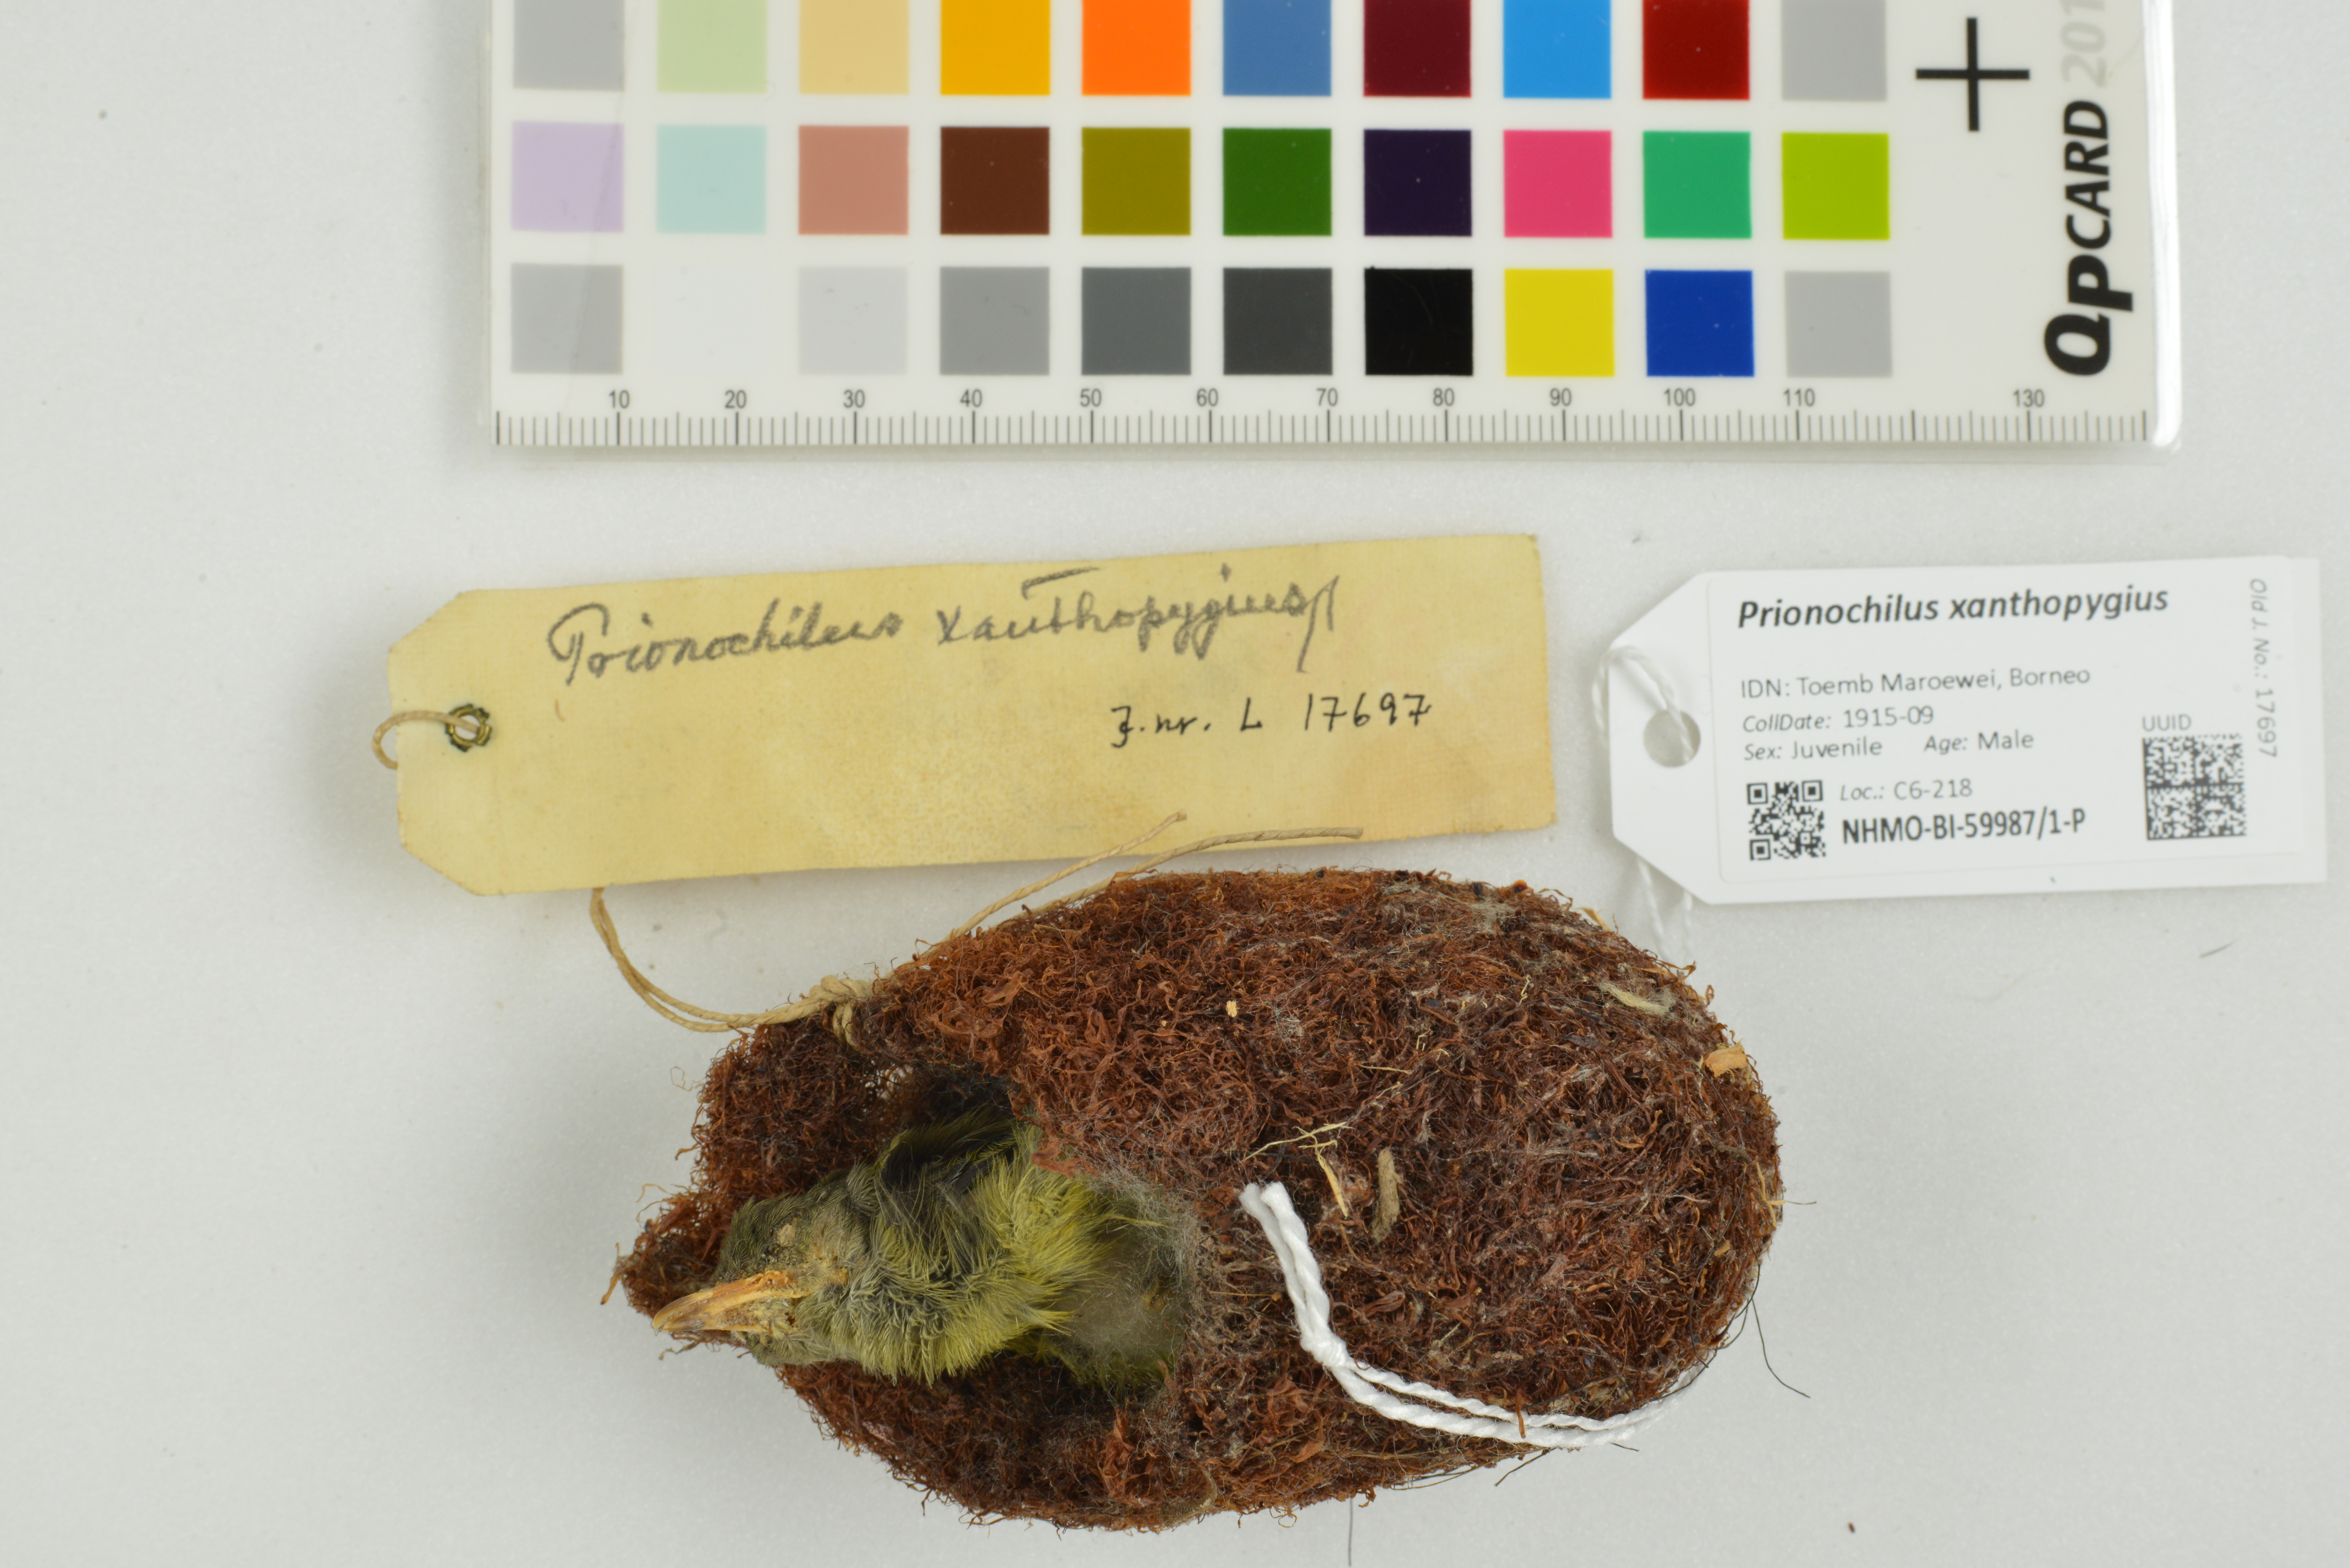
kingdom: Animalia
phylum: Chordata
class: Aves
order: Passeriformes
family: Dicaeidae
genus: Prionochilus
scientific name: Prionochilus xanthopygius
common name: Yellow-rumped flowerpecker
